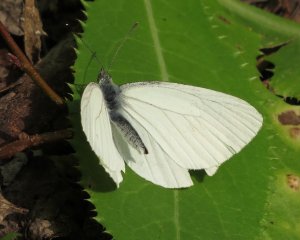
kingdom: Animalia
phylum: Arthropoda
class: Insecta
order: Lepidoptera
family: Pieridae
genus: Pieris
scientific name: Pieris oleracea
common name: Mustard White
